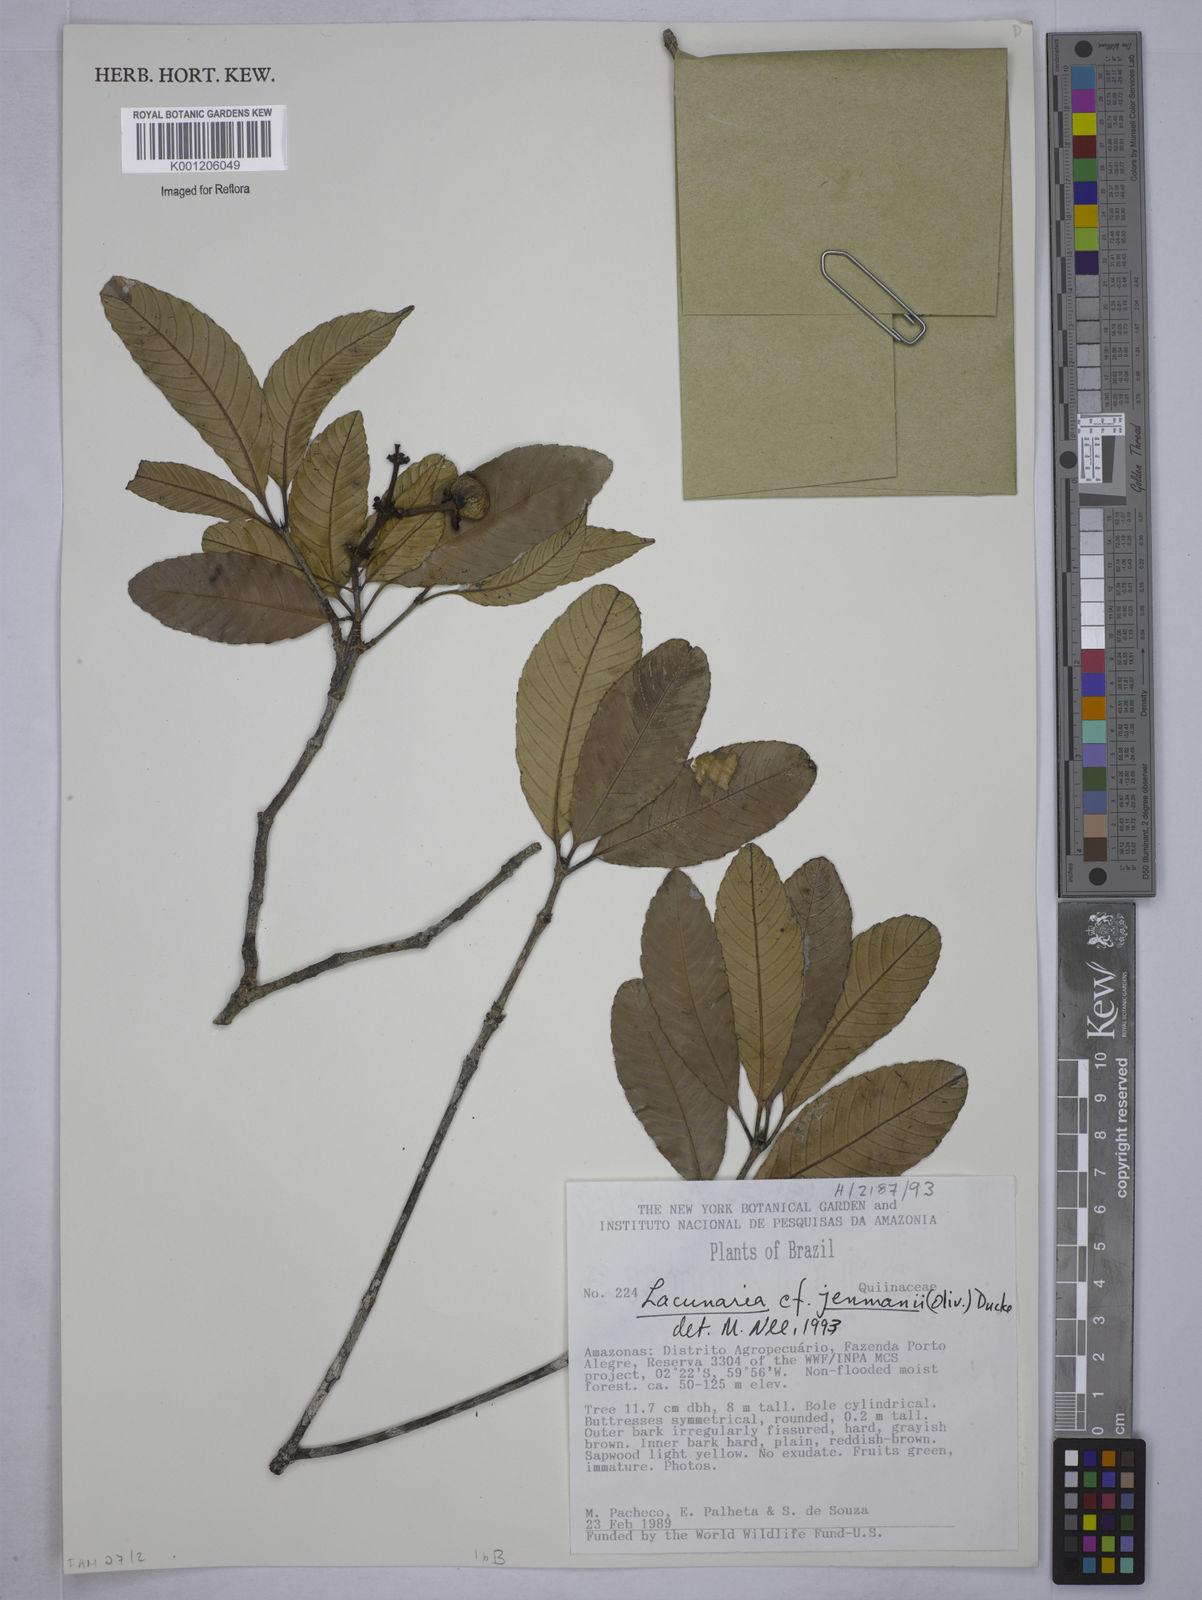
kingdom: Plantae
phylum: Tracheophyta
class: Magnoliopsida
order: Malpighiales
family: Quiinaceae
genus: Lacunaria
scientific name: Lacunaria jenmanii
